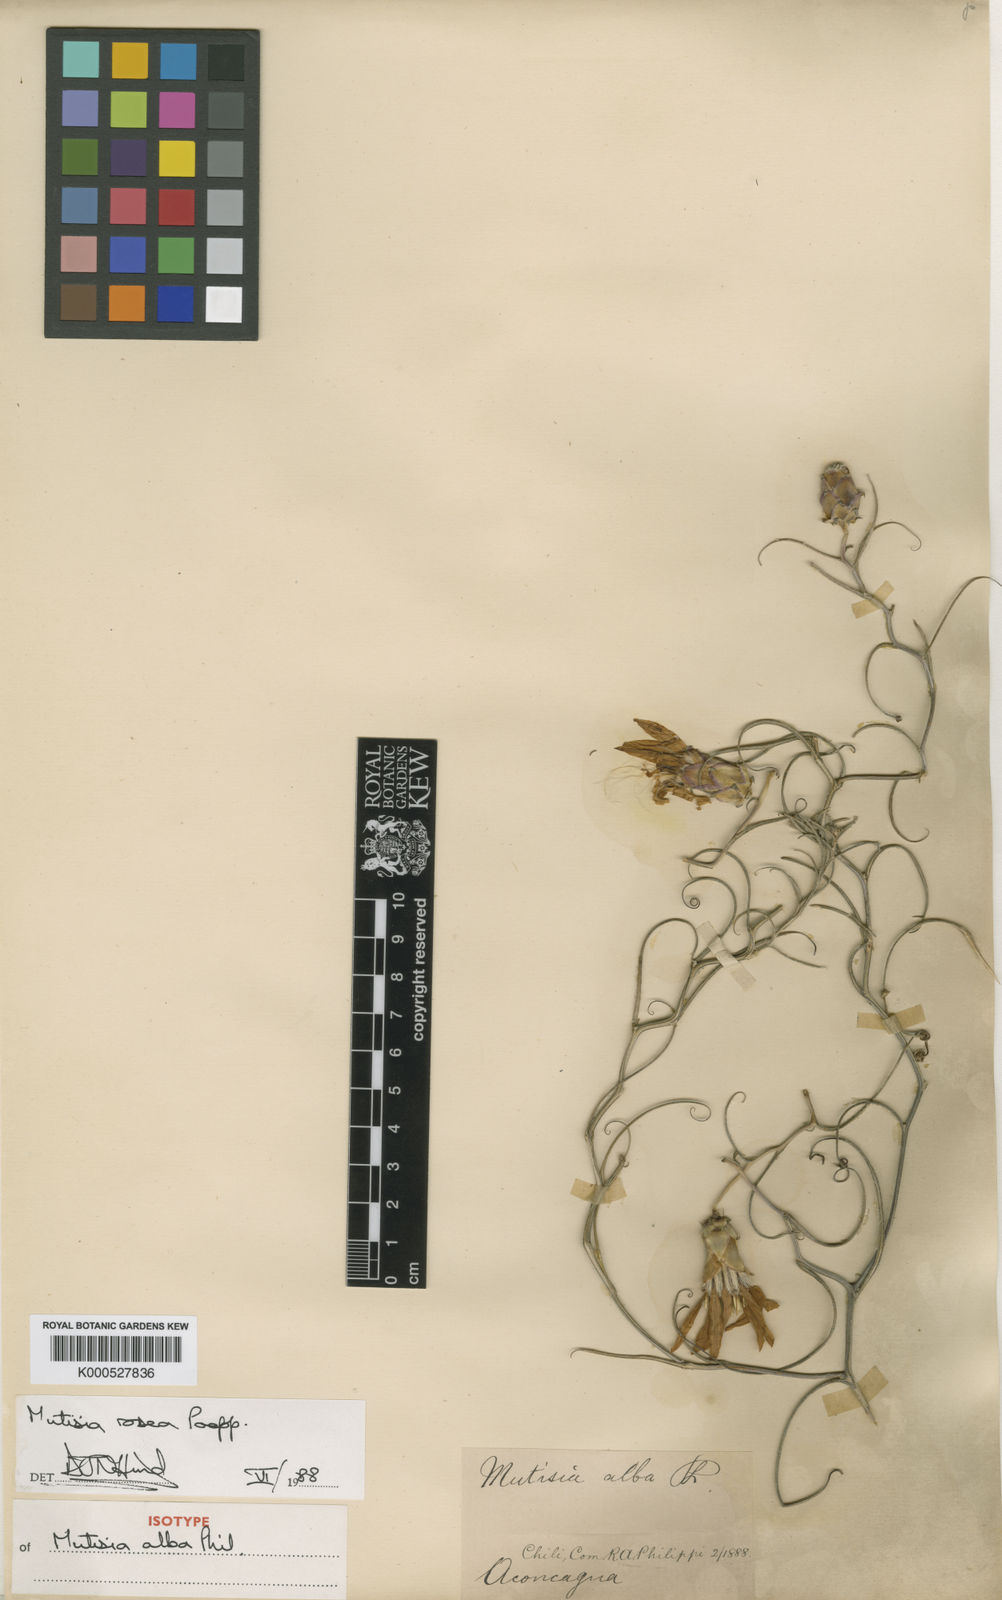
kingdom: Plantae
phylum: Tracheophyta
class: Magnoliopsida
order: Asterales
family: Asteraceae
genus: Mutisia
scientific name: Mutisia rosea
